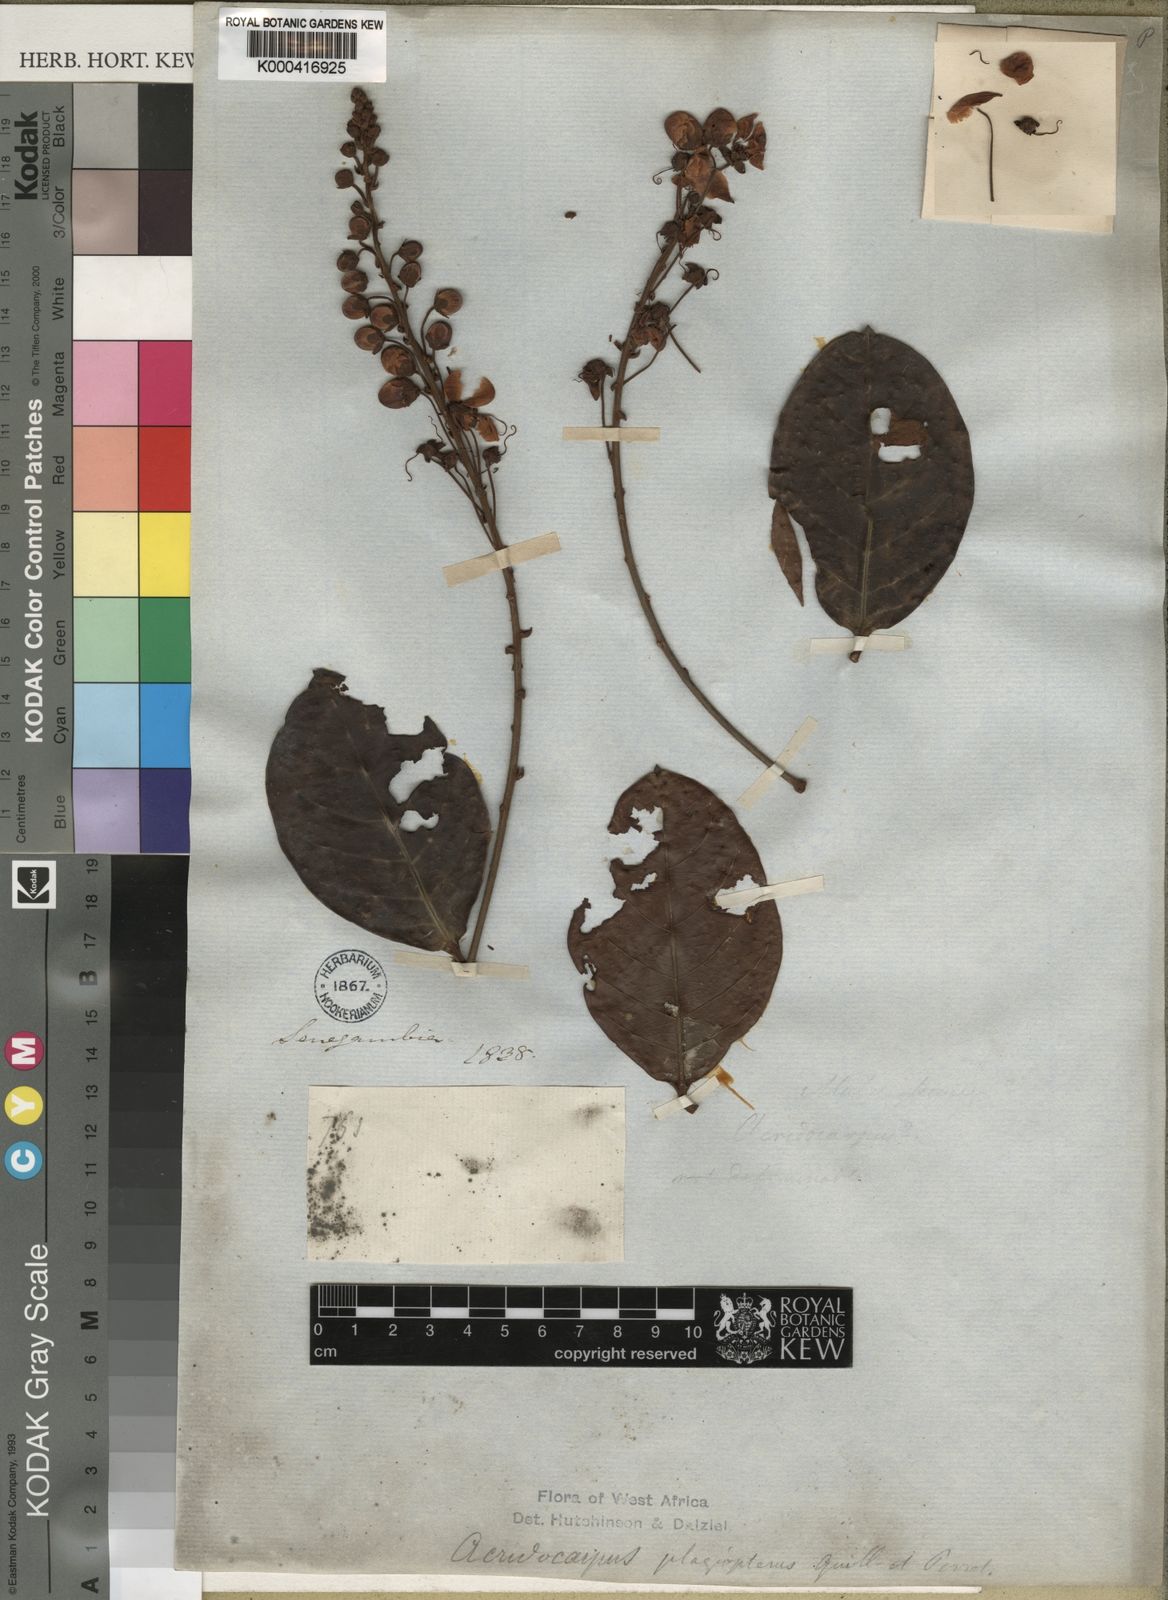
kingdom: Plantae
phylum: Tracheophyta
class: Magnoliopsida
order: Malpighiales
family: Malpighiaceae
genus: Acridocarpus
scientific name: Acridocarpus plagiopterus
